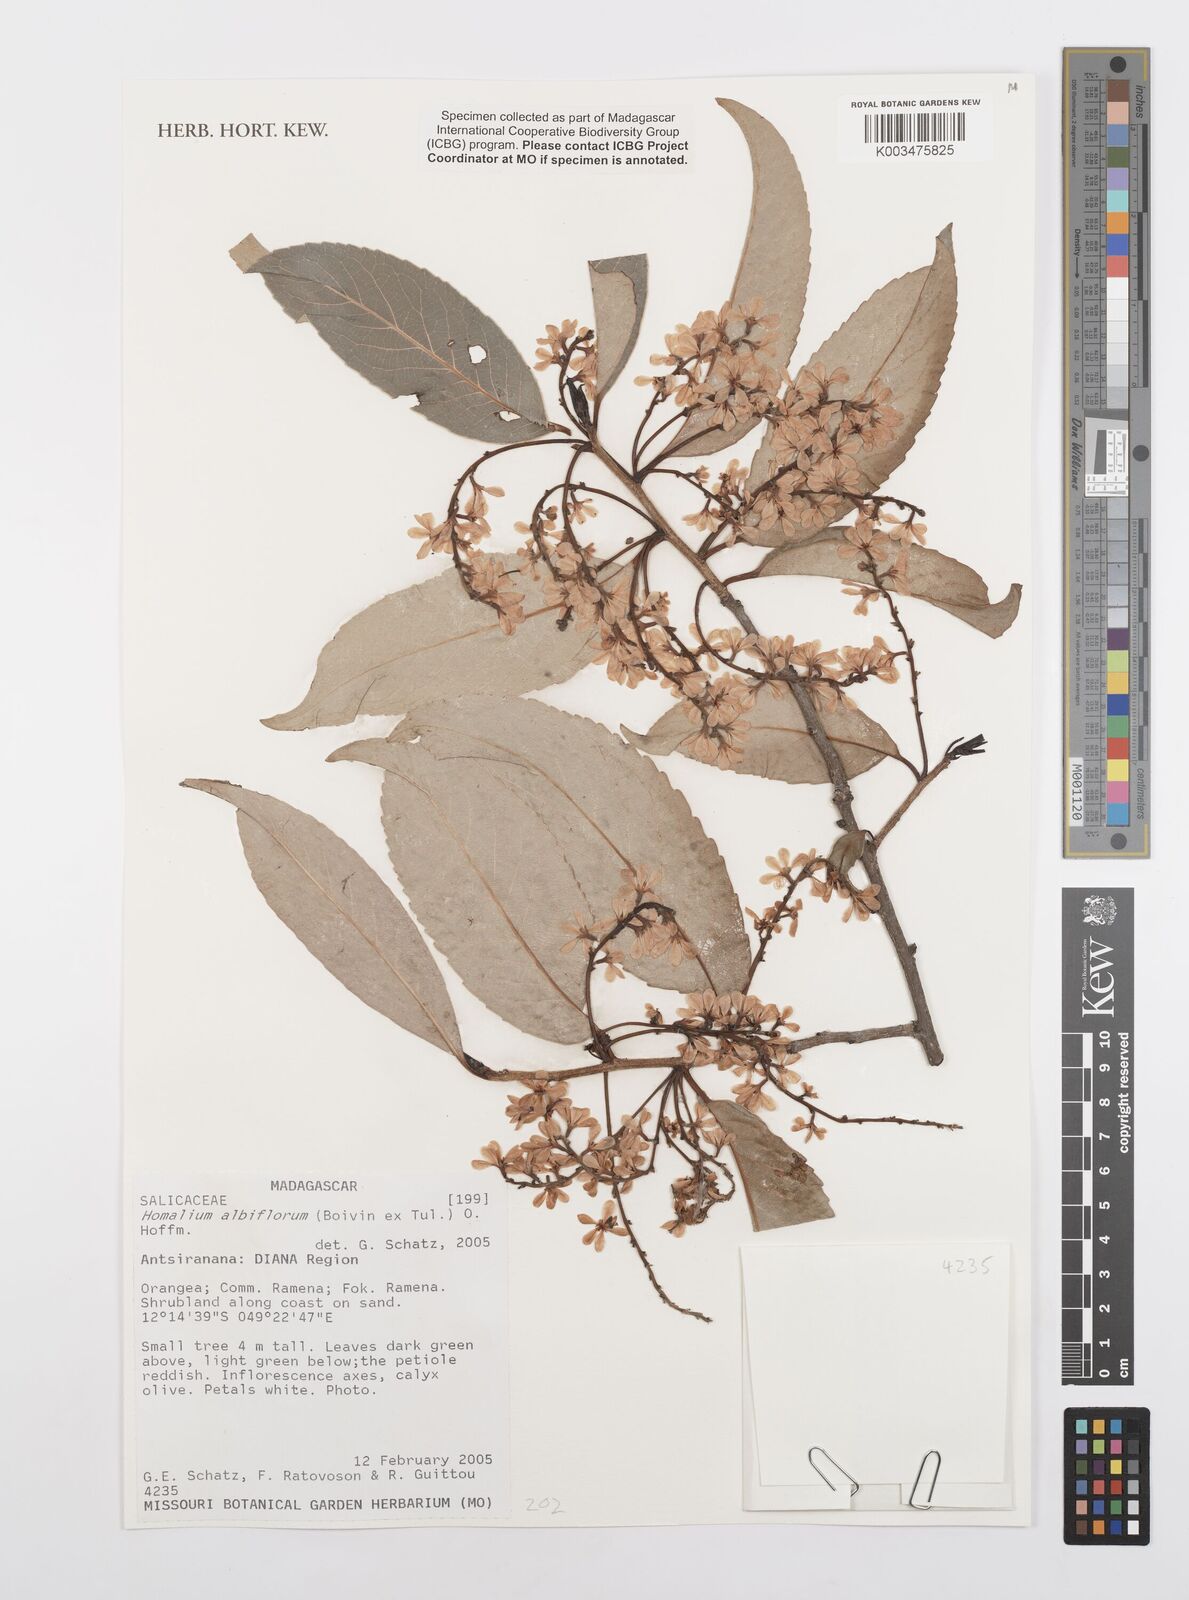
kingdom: Plantae
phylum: Tracheophyta
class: Magnoliopsida
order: Malpighiales
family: Salicaceae
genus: Homalium
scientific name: Homalium albiflorum
